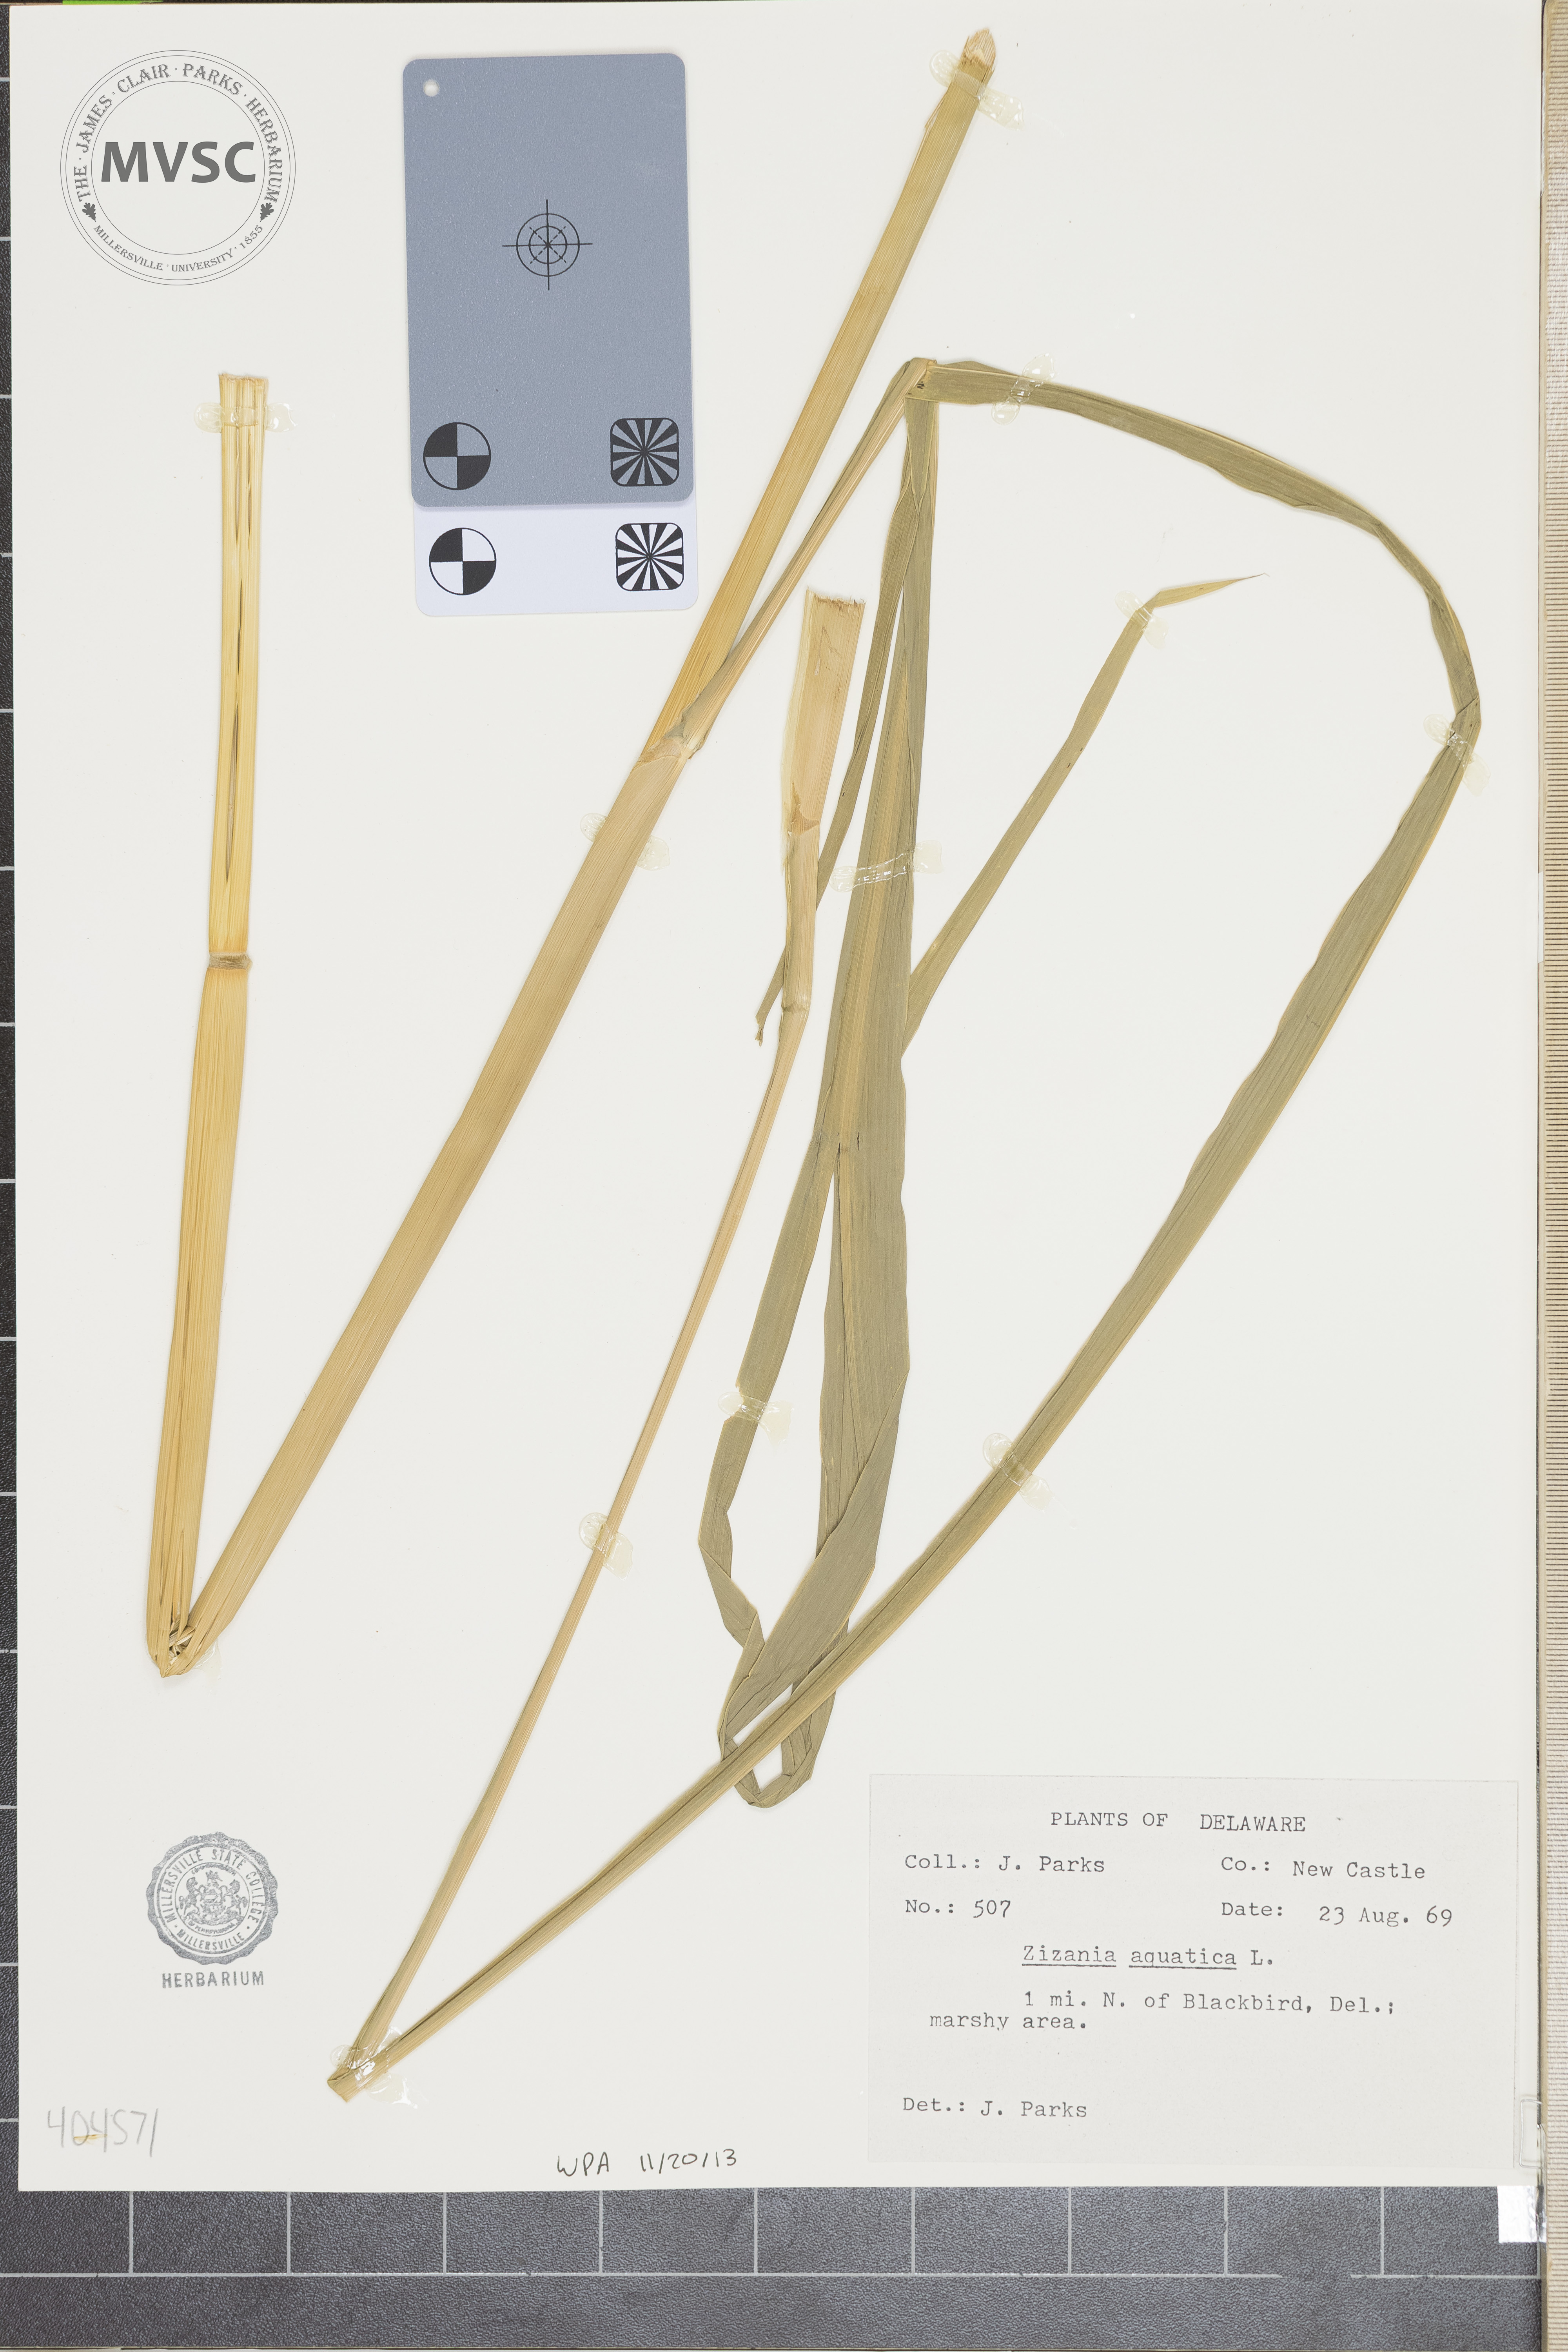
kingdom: Plantae
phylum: Tracheophyta
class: Liliopsida
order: Poales
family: Poaceae
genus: Zizania
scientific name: Zizania aquatica
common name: Annual wildrice
